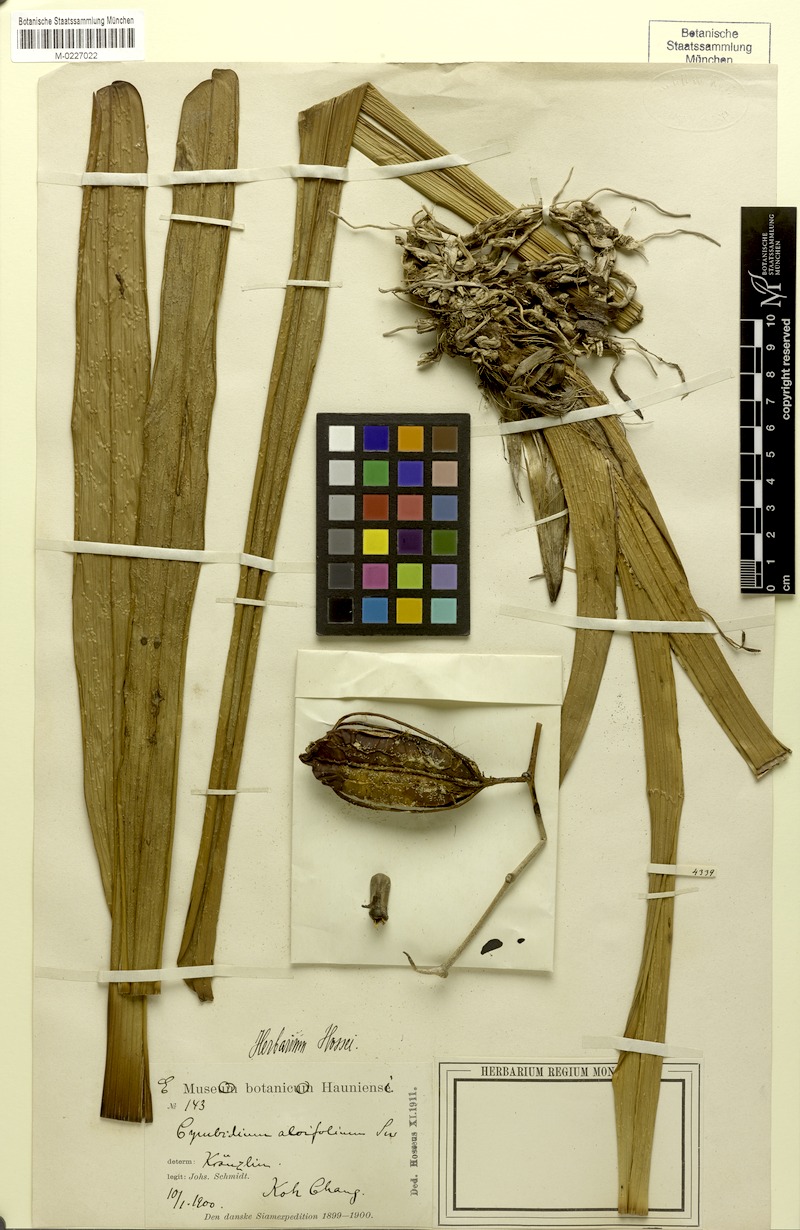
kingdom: Plantae
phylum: Tracheophyta
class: Liliopsida
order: Asparagales
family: Orchidaceae
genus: Cymbidium
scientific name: Cymbidium aloifolium
